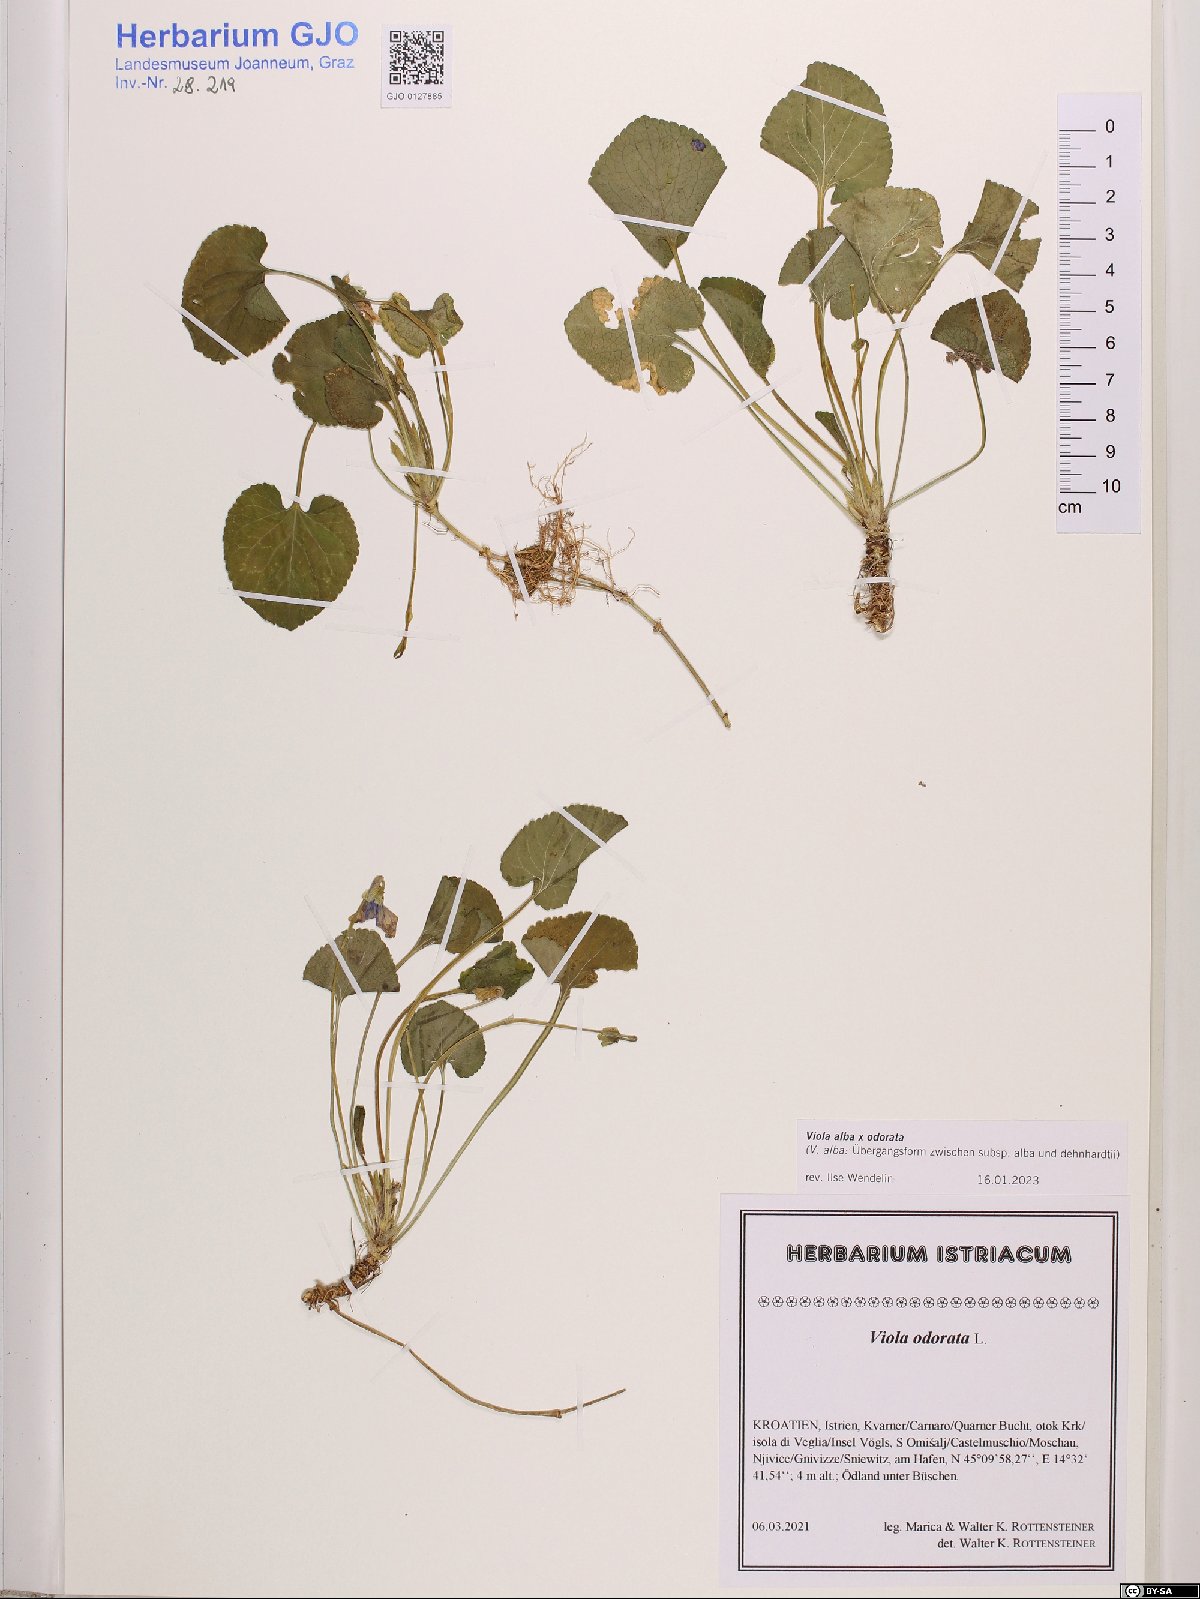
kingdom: Plantae
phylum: Tracheophyta
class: Magnoliopsida
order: Malpighiales
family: Violaceae
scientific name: Violaceae
